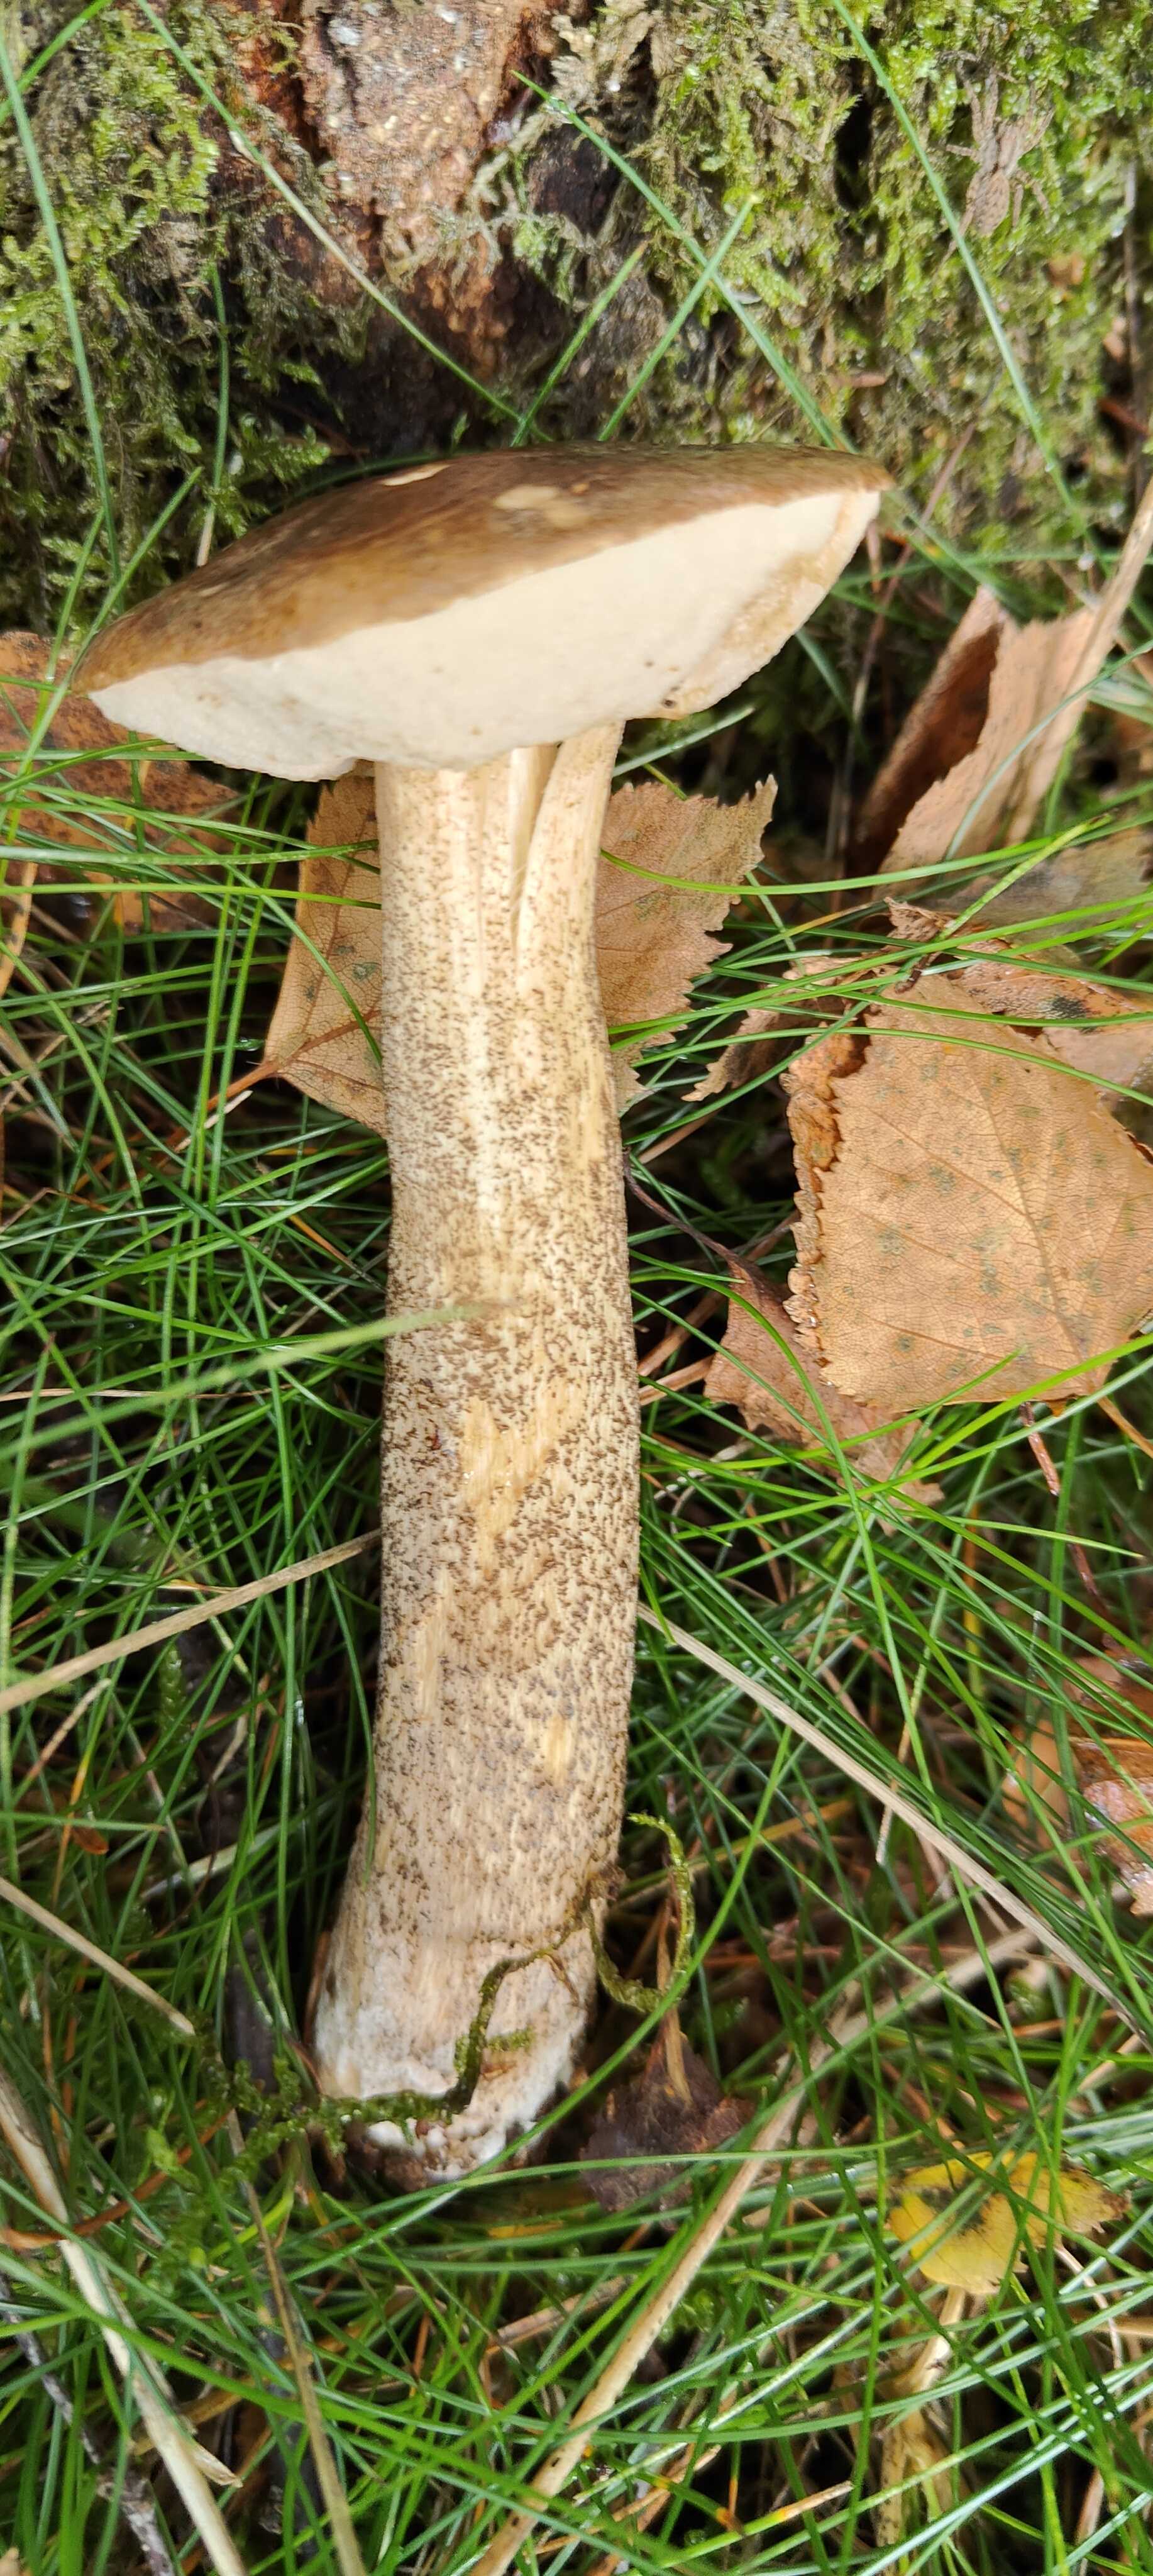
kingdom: Fungi
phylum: Basidiomycota
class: Agaricomycetes
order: Boletales
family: Boletaceae
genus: Leccinum
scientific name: Leccinum scabrum
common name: brun skælrørhat
